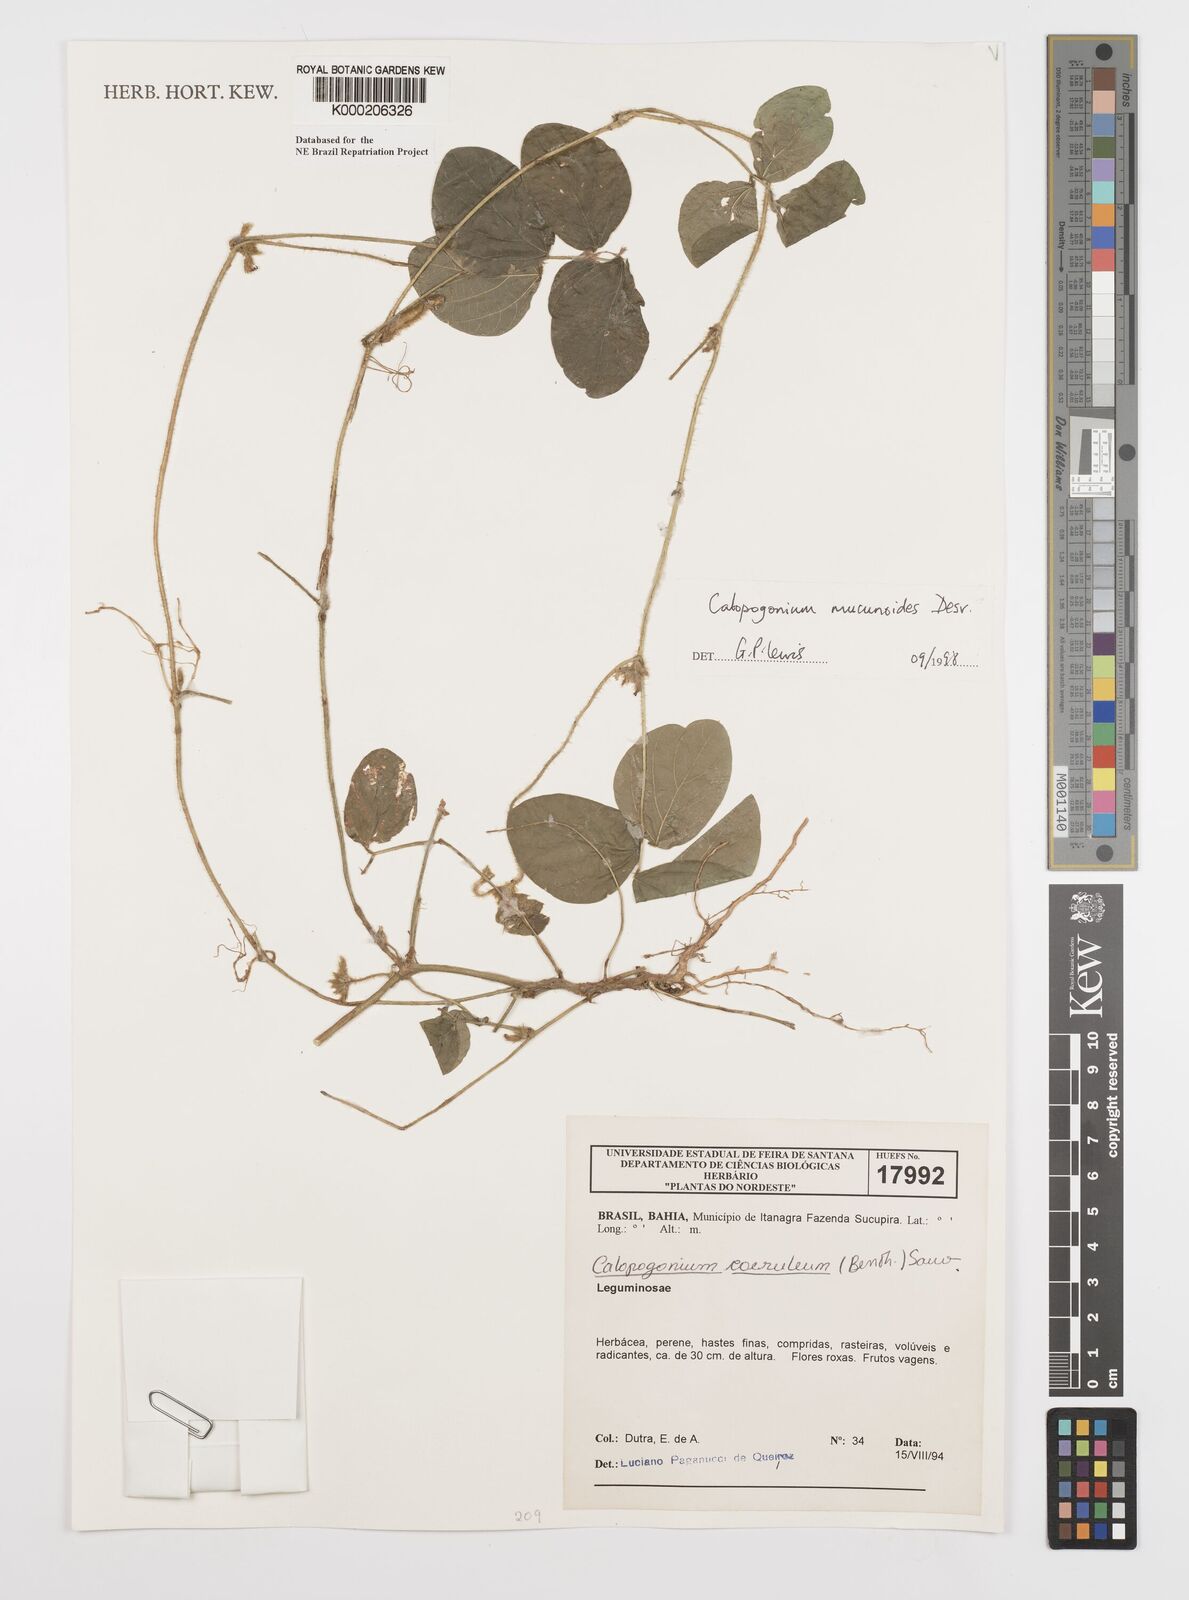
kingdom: Plantae
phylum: Tracheophyta
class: Magnoliopsida
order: Fabales
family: Fabaceae
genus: Calopogonium
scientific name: Calopogonium mucunoides
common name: Calopo
